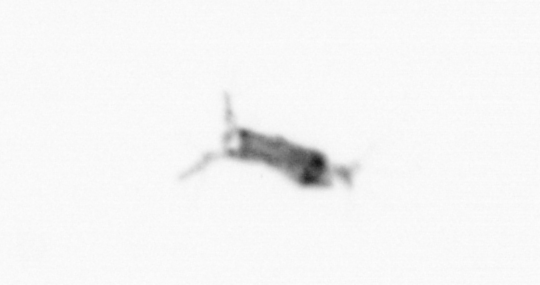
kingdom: Animalia
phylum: Arthropoda
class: Copepoda
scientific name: Copepoda
